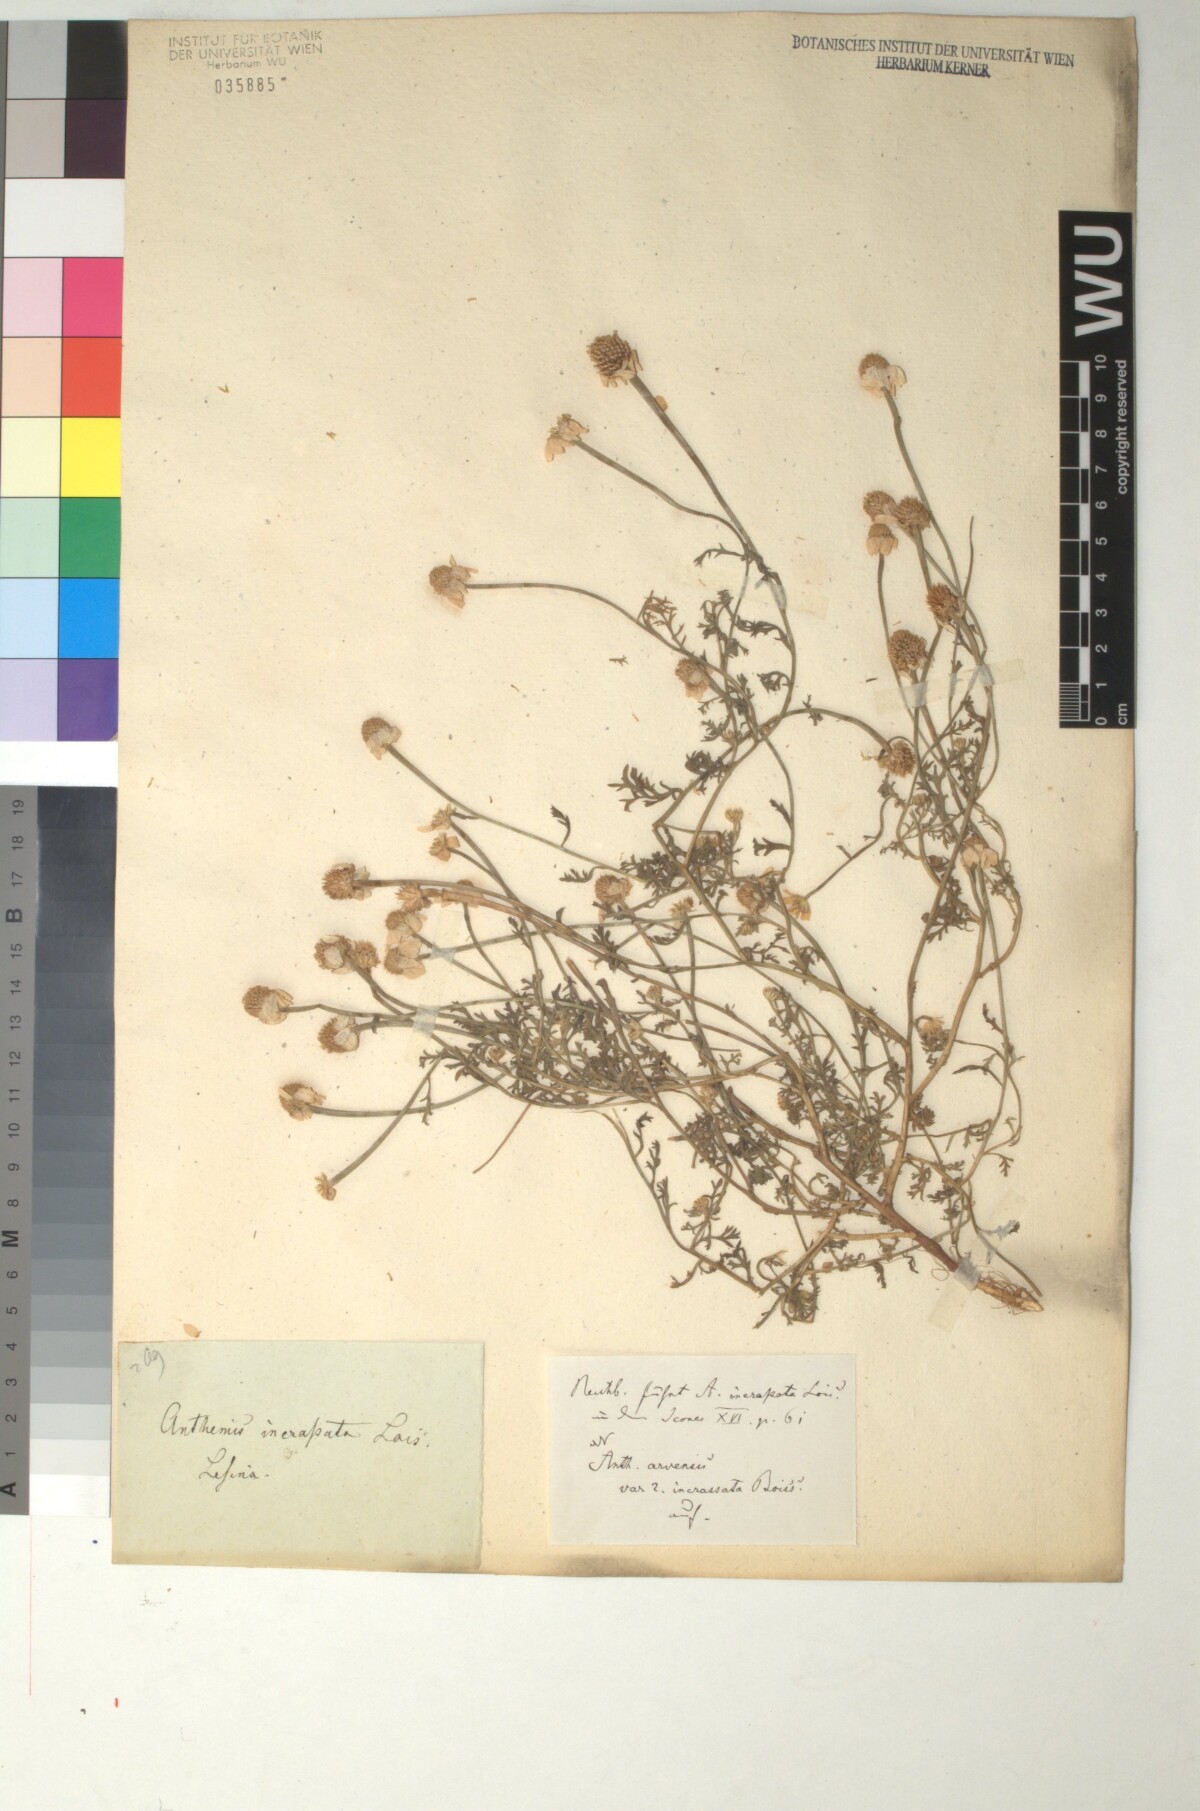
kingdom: Plantae
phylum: Tracheophyta
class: Magnoliopsida
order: Asterales
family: Asteraceae
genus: Anthemis
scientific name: Anthemis arvensis
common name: Corn chamomile
